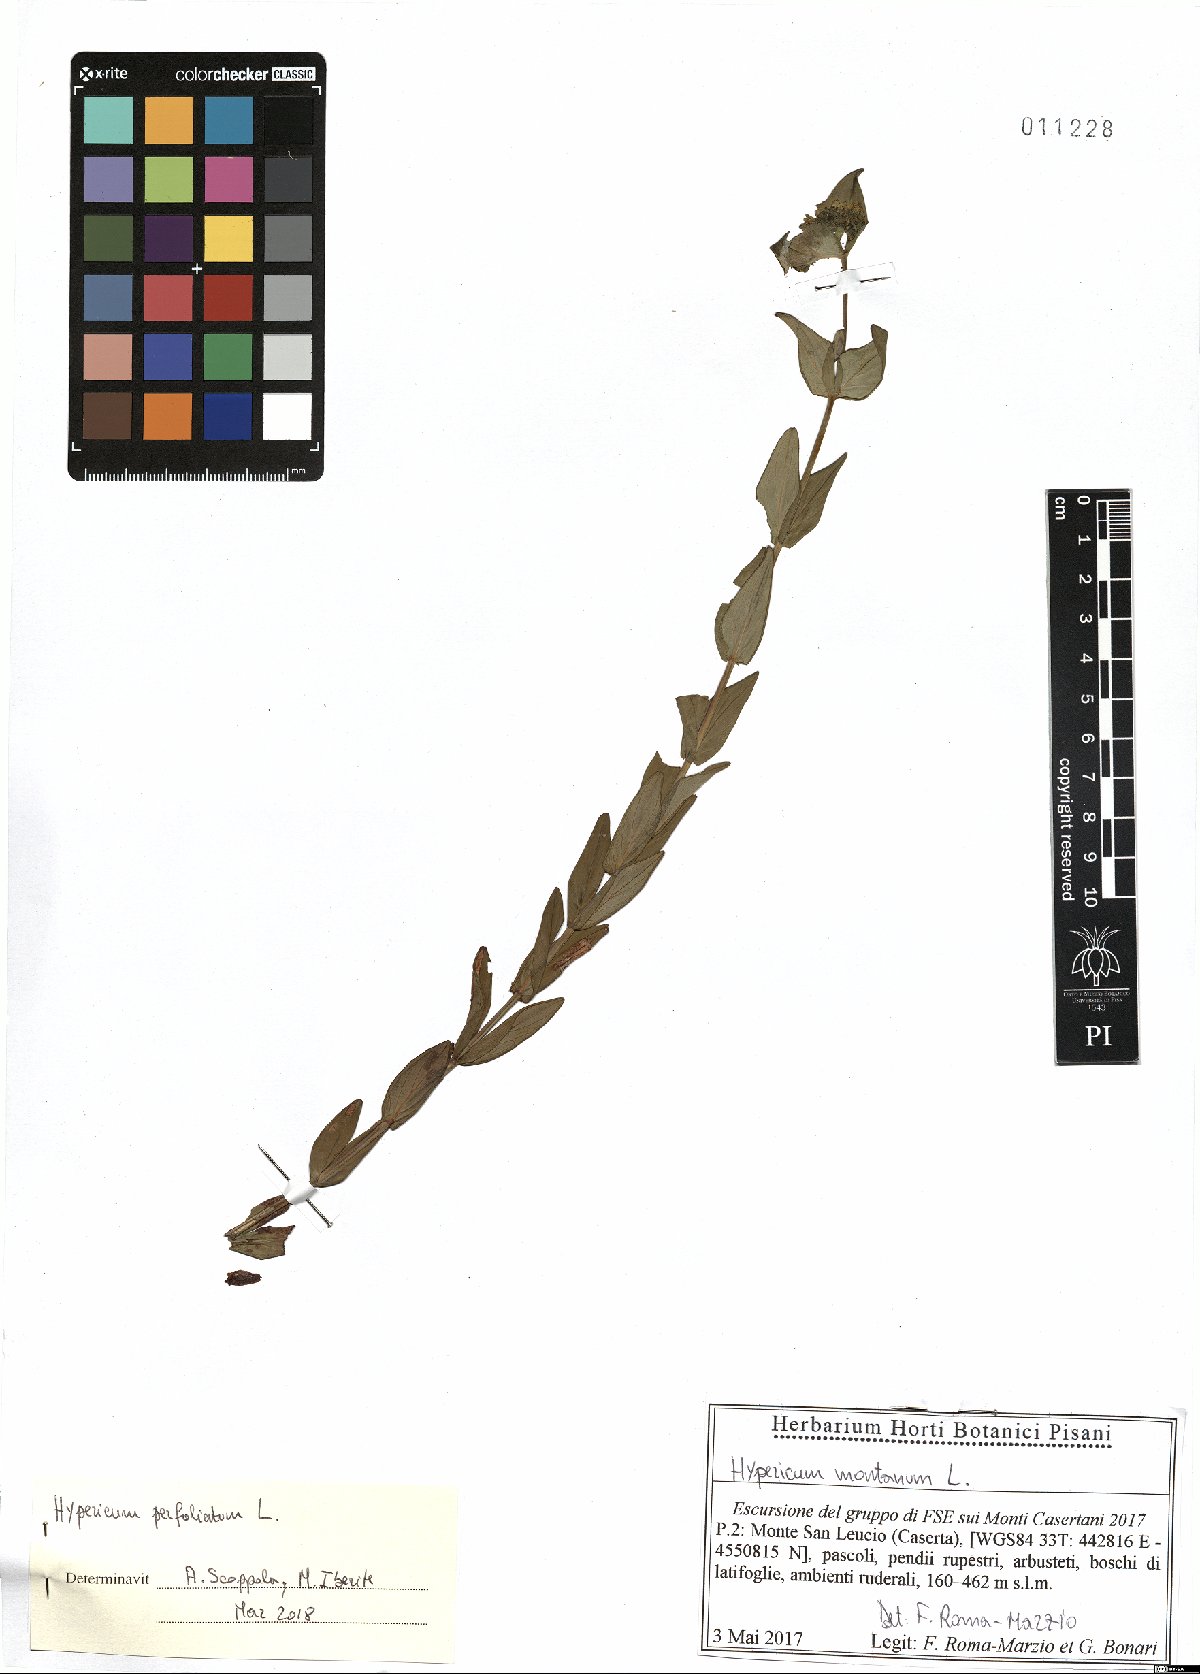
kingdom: Plantae
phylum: Tracheophyta
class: Magnoliopsida
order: Malpighiales
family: Hypericaceae
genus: Hypericum
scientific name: Hypericum perfoliatum
